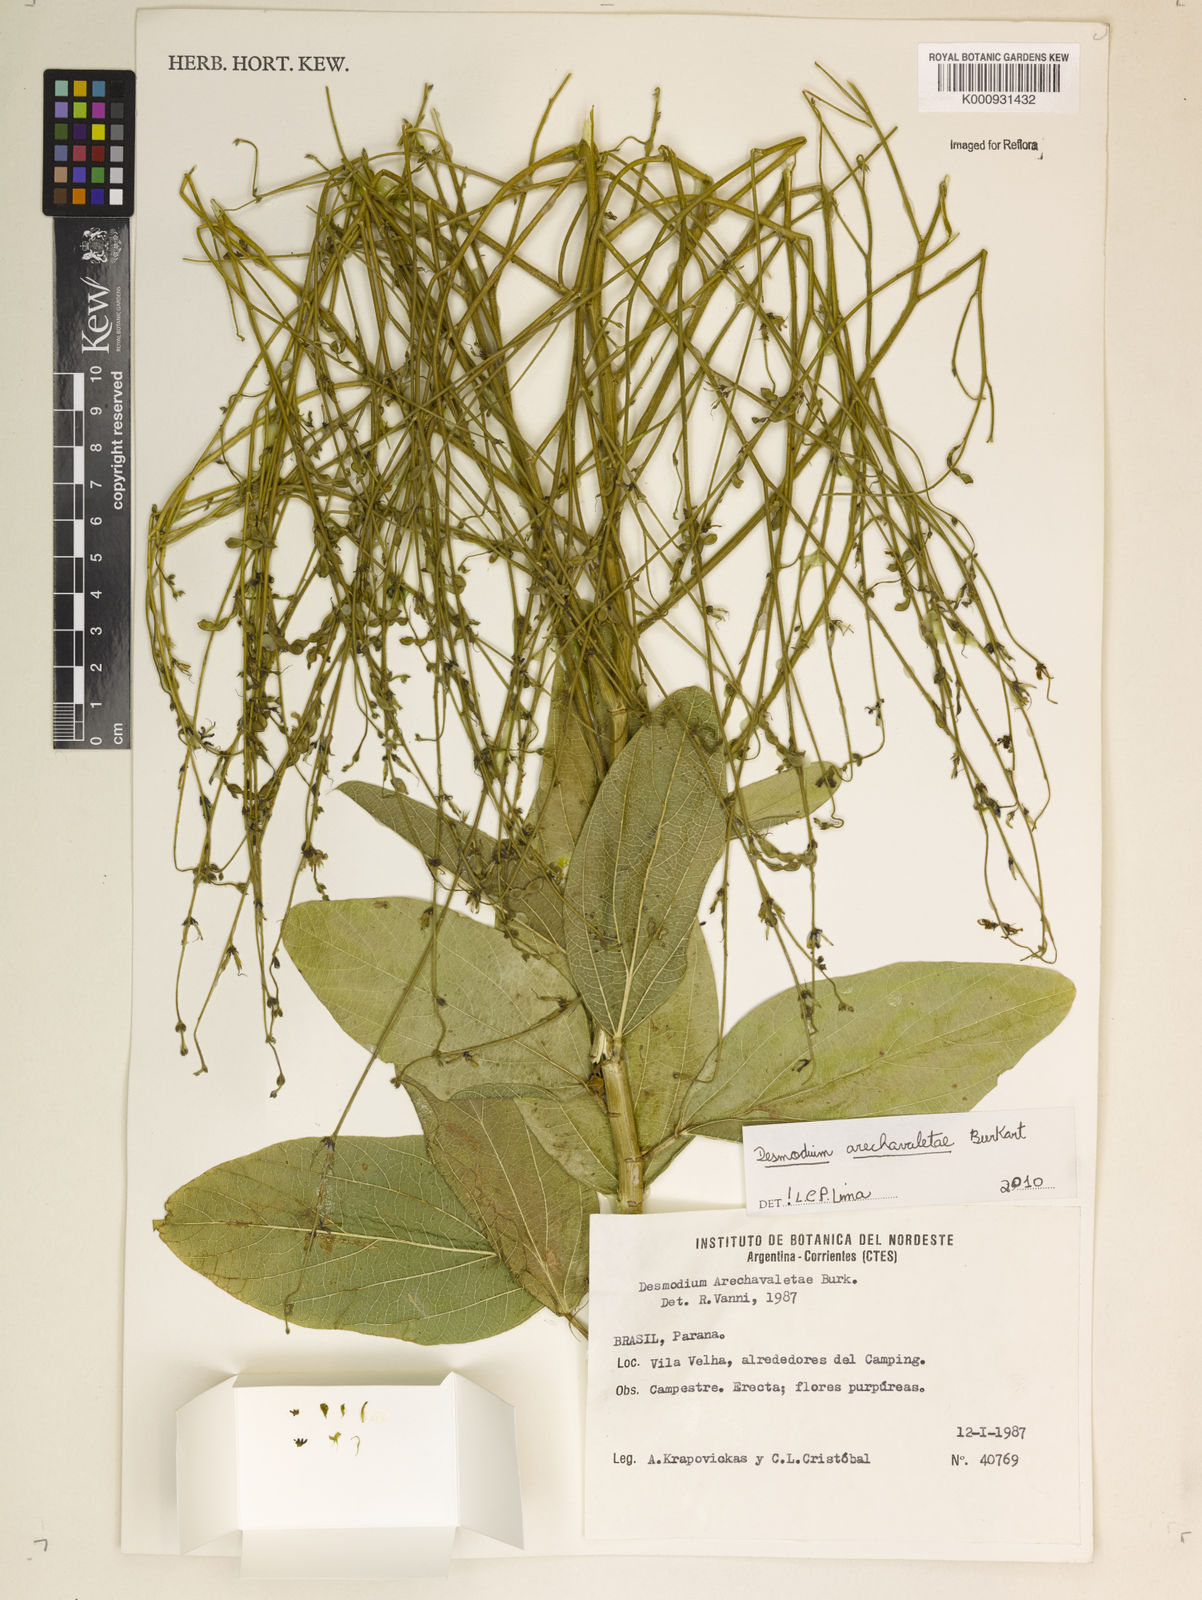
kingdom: Plantae
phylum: Tracheophyta
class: Magnoliopsida
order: Fabales
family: Fabaceae
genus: Desmodium
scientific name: Desmodium arechavaletae
